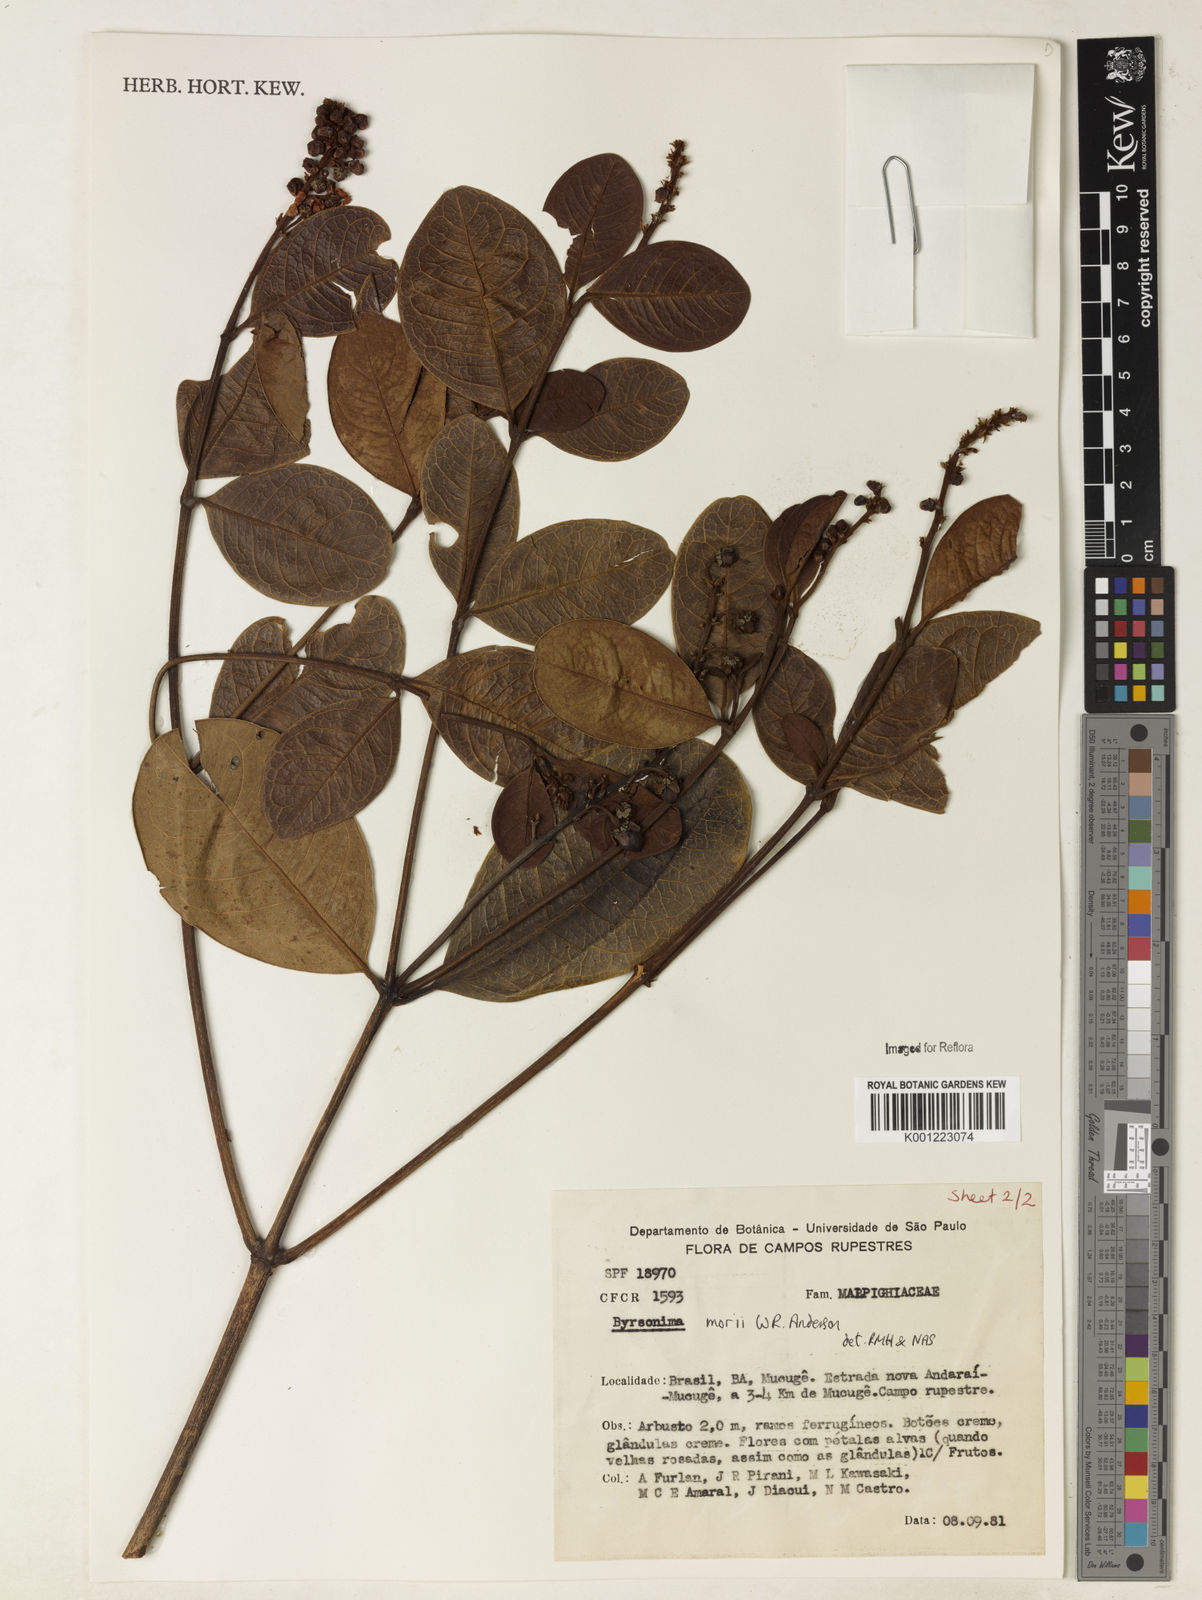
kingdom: Plantae
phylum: Tracheophyta
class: Magnoliopsida
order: Malpighiales
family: Malpighiaceae
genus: Byrsonima
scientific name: Byrsonima morii
